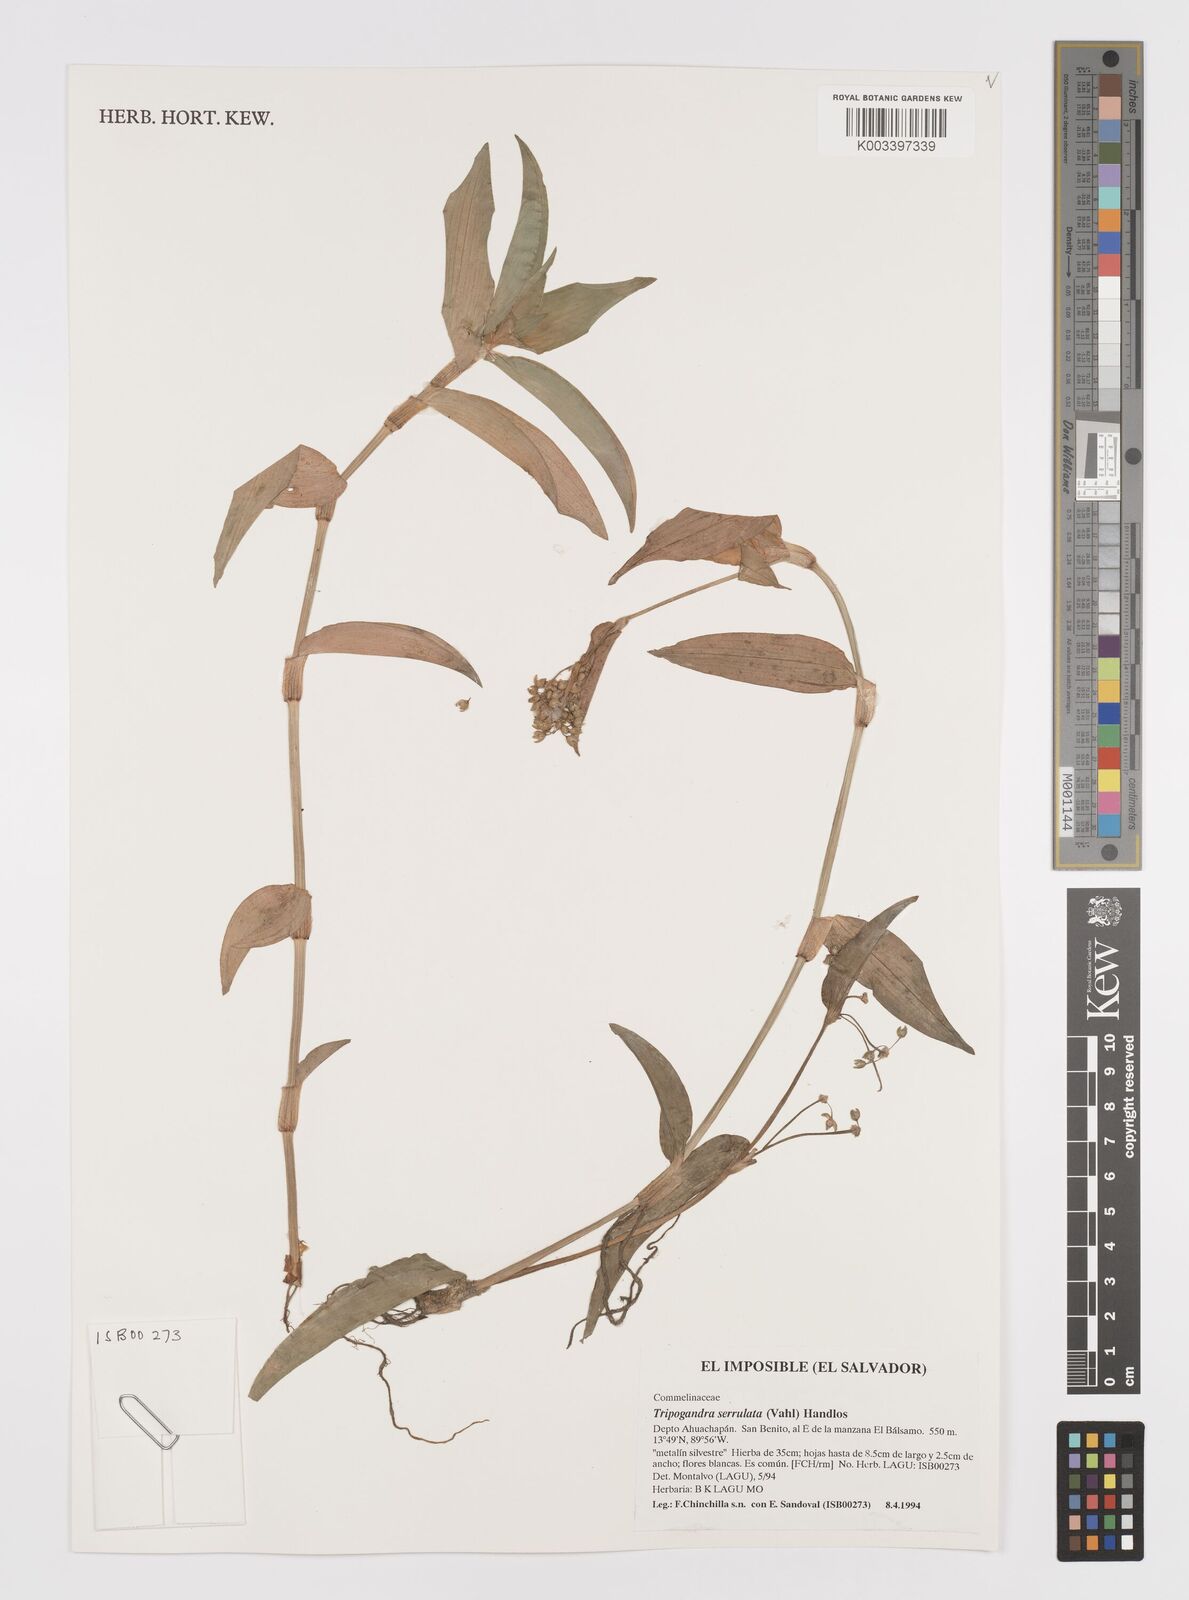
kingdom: Plantae
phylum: Tracheophyta
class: Liliopsida
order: Commelinales
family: Commelinaceae
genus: Callisia
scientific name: Callisia serrulata
